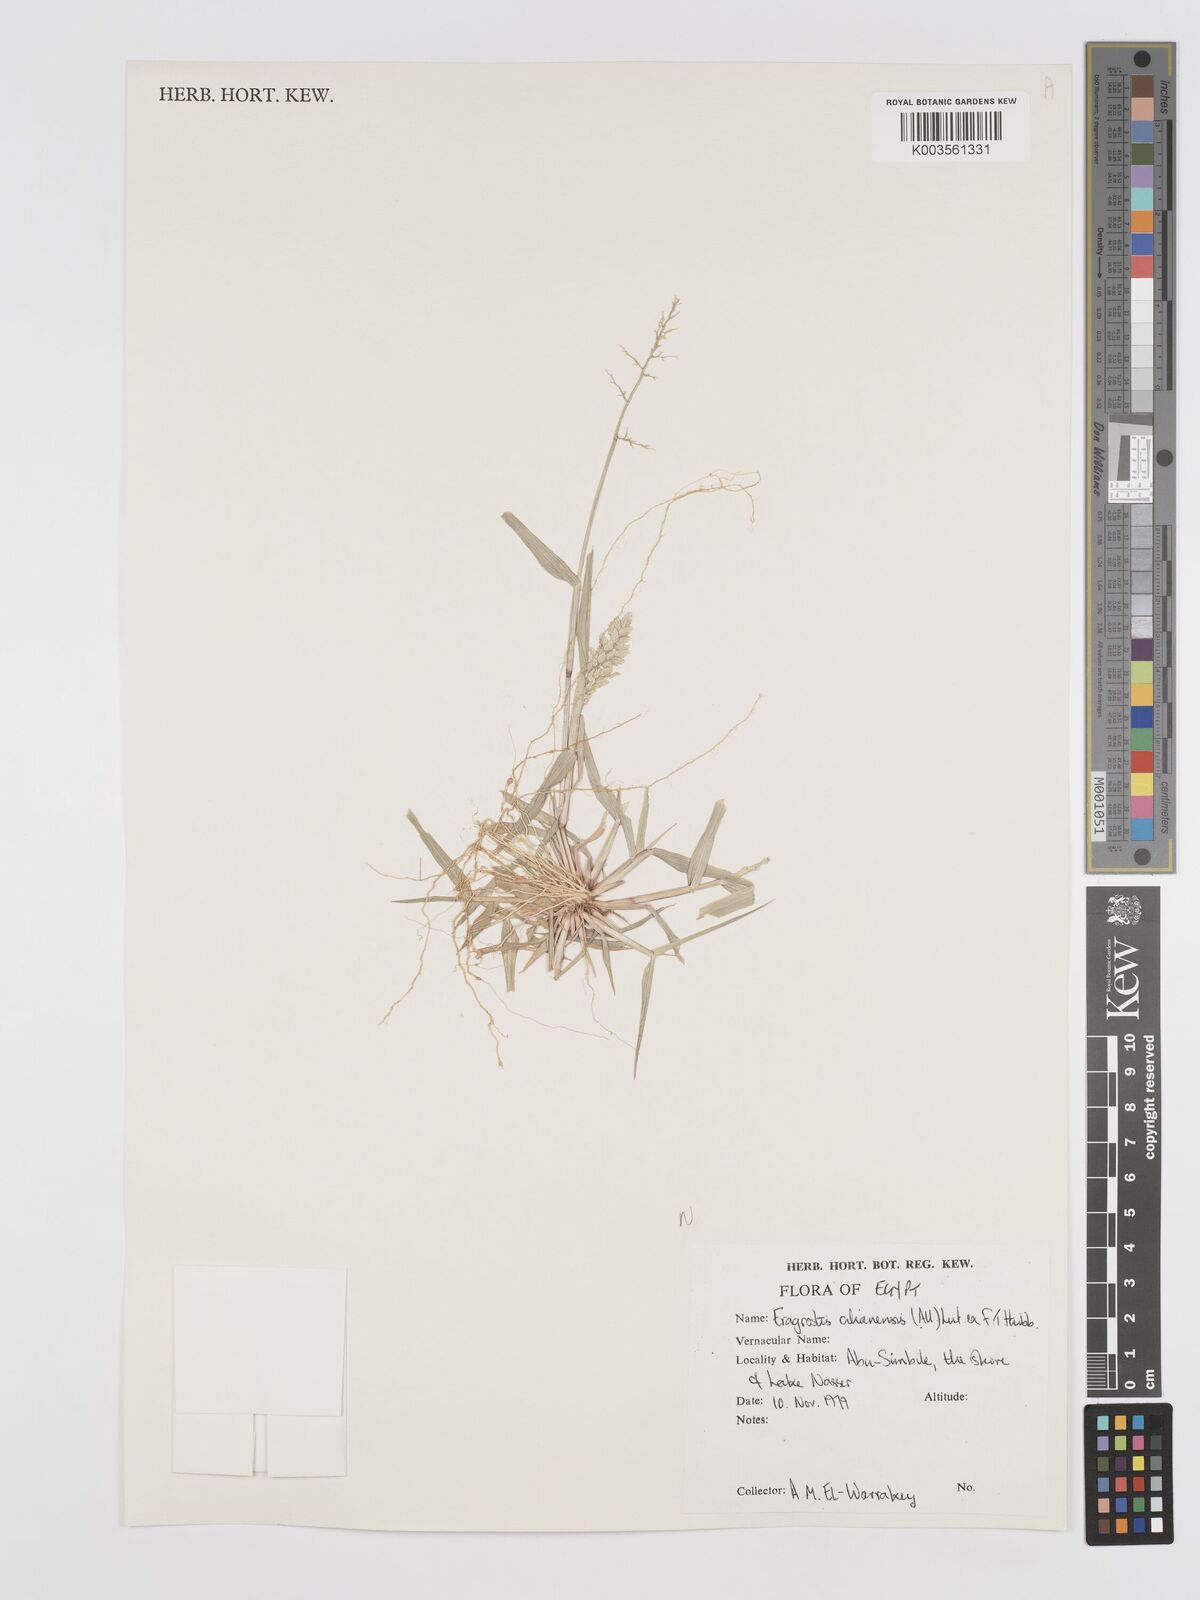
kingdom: Plantae
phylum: Tracheophyta
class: Liliopsida
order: Poales
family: Poaceae
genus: Eragrostis
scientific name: Eragrostis cilianensis
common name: Stinkgrass
